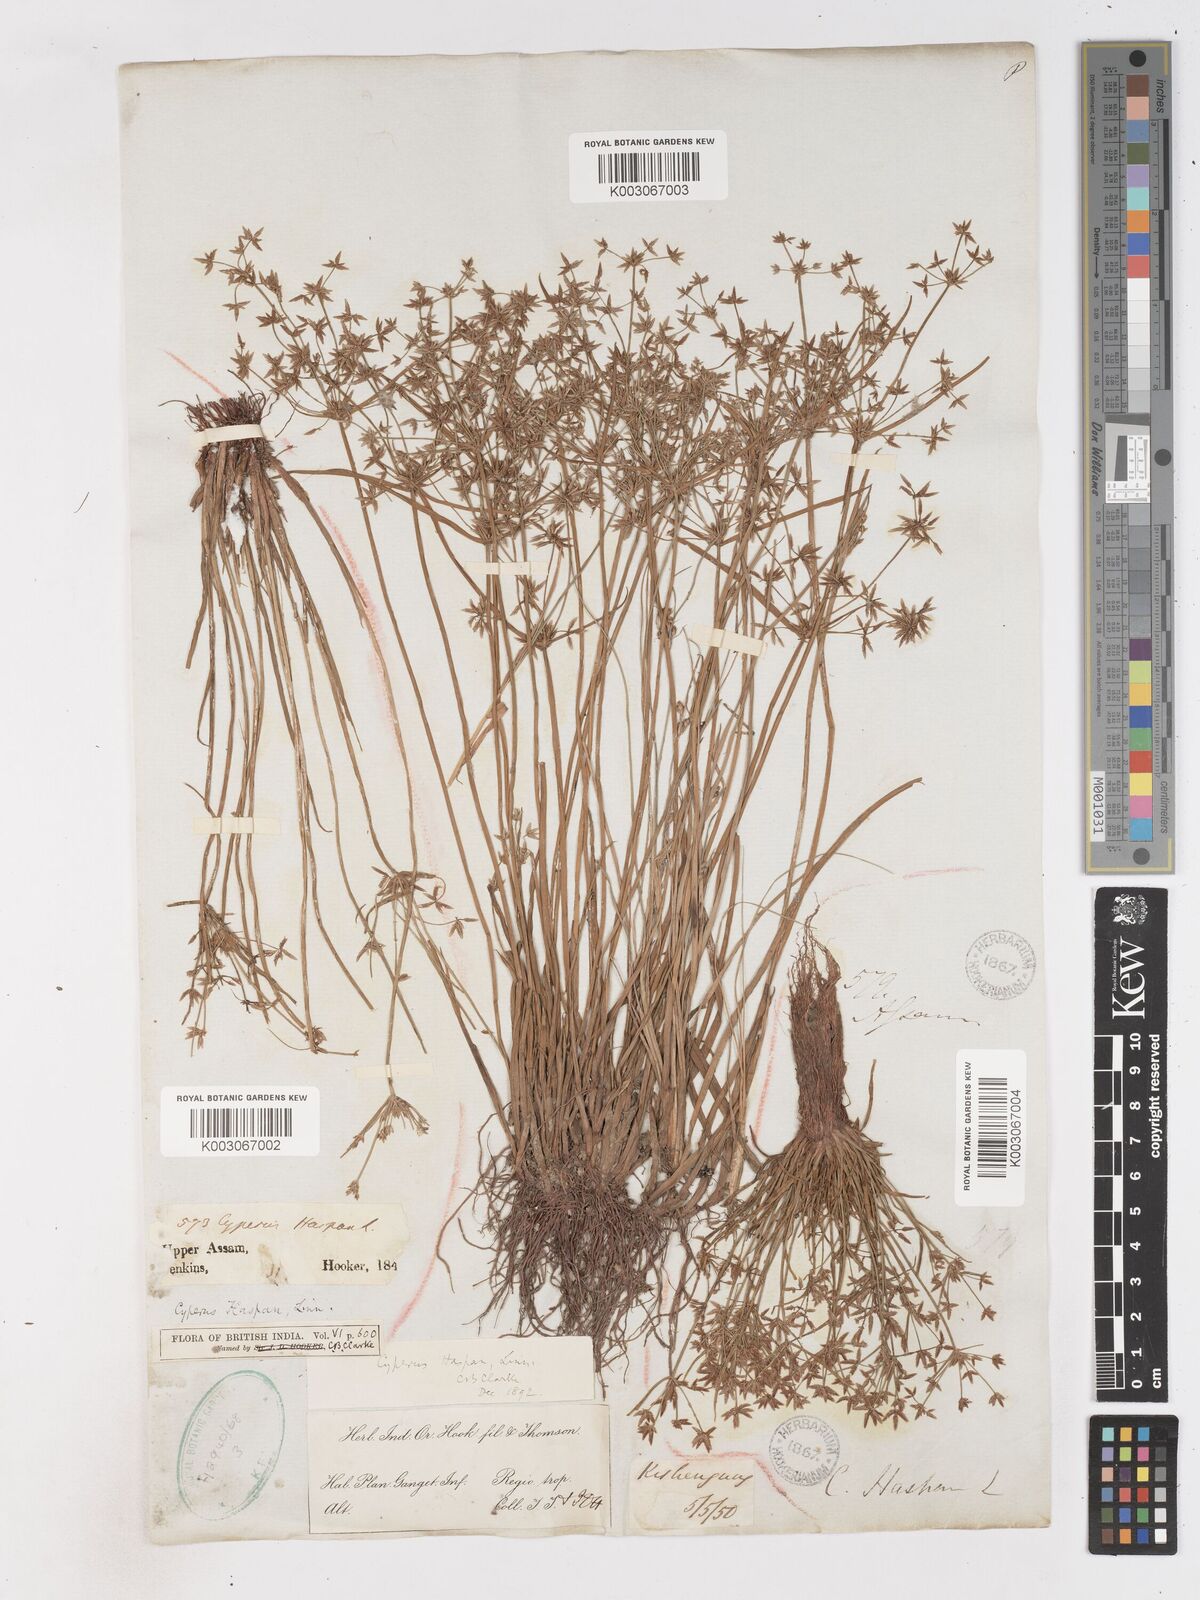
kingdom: Plantae
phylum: Tracheophyta
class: Liliopsida
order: Poales
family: Cyperaceae
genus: Cyperus
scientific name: Cyperus haspan
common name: Haspan flatsedge
